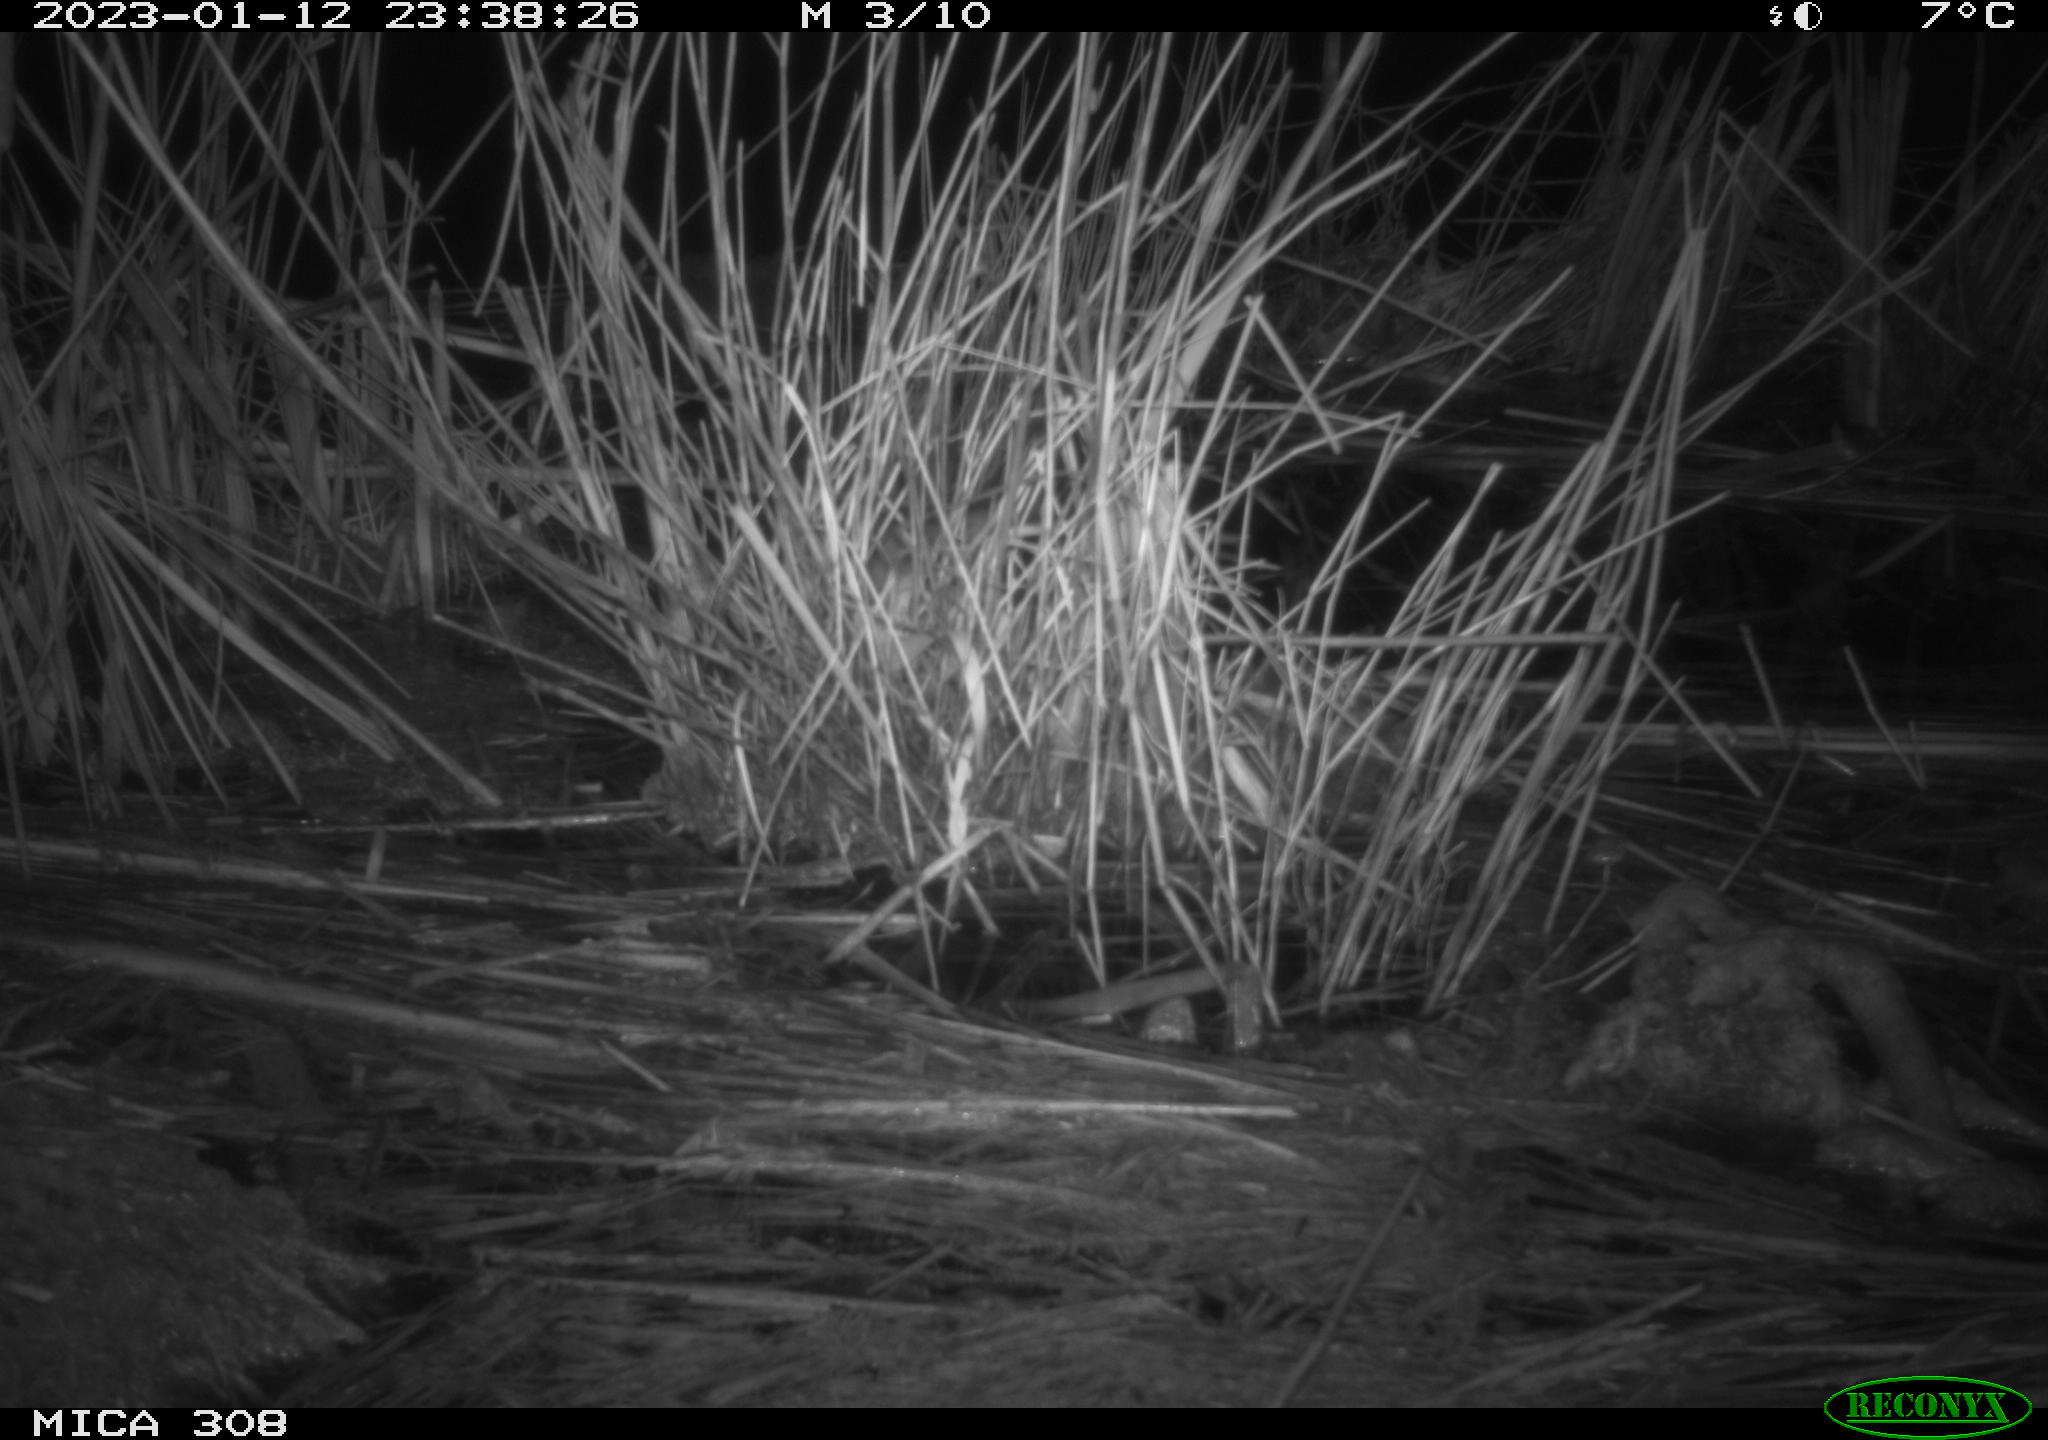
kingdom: Animalia
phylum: Chordata
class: Mammalia
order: Rodentia
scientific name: Rodentia
